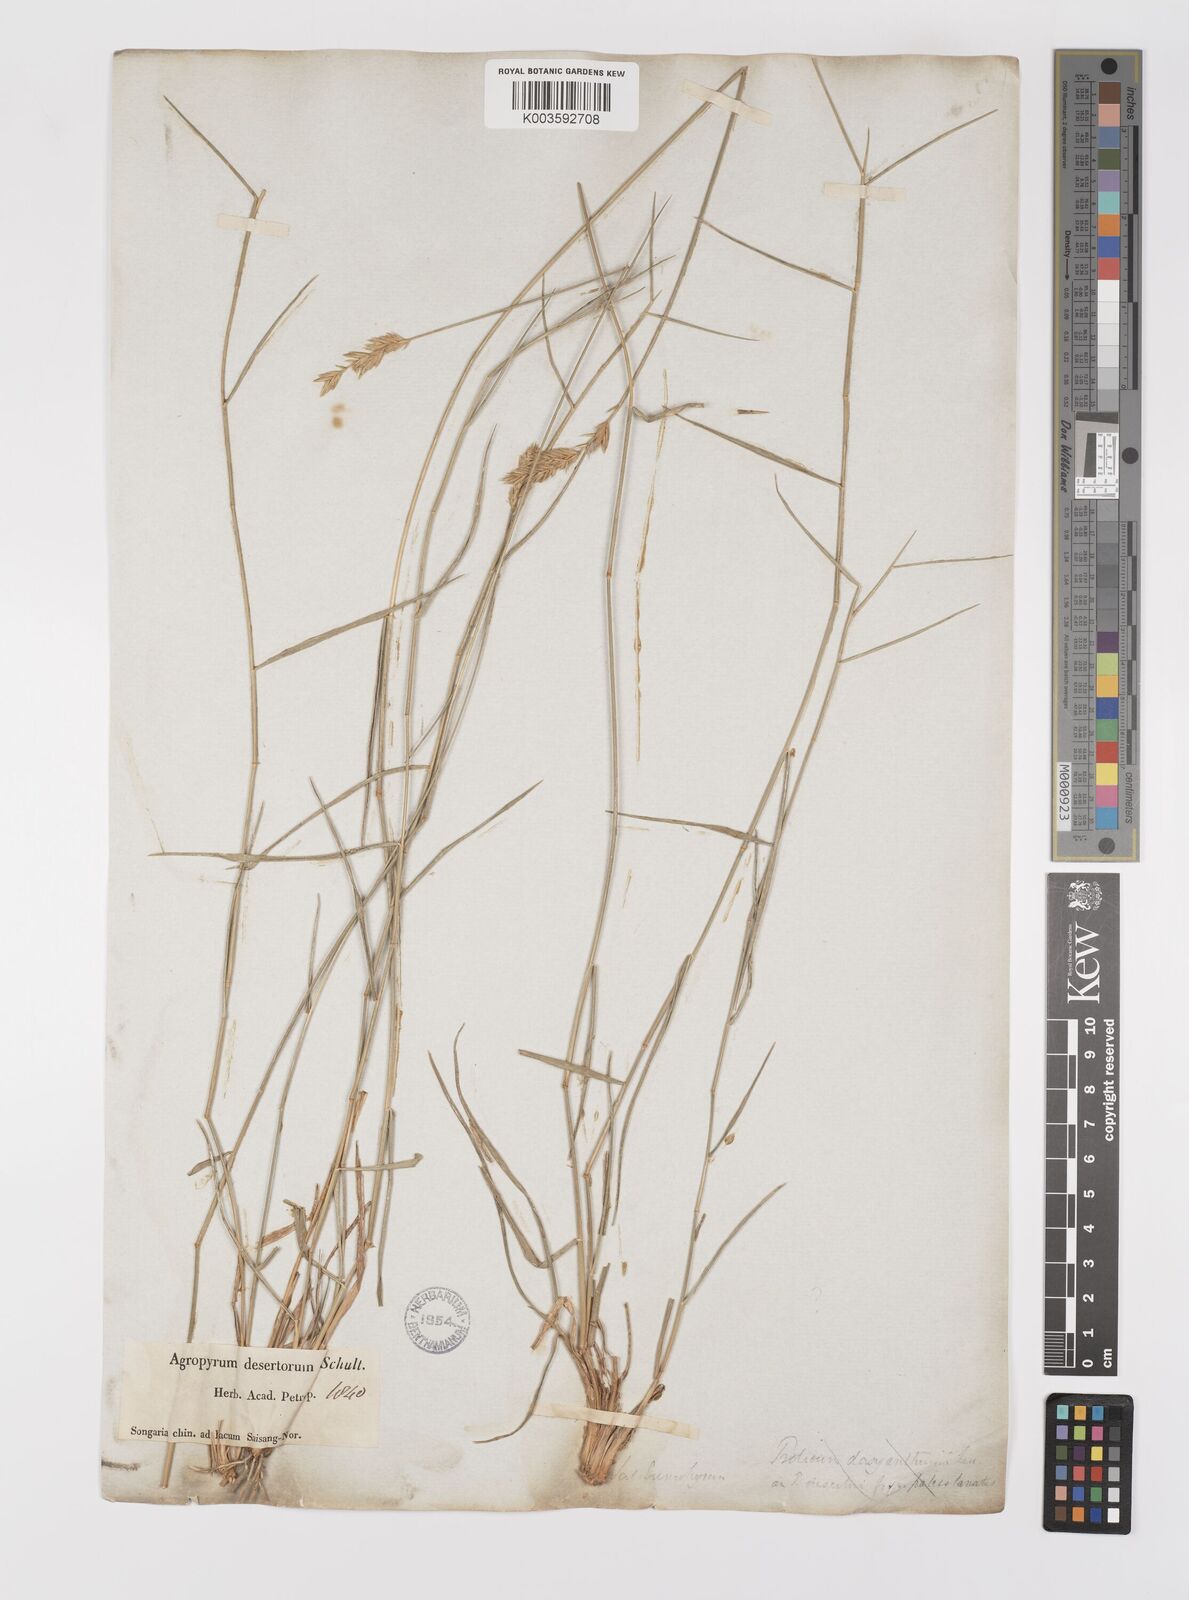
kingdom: Plantae
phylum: Tracheophyta
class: Liliopsida
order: Poales
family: Poaceae
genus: Agropyron
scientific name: Agropyron desertorum
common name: Desert wheatgrass
